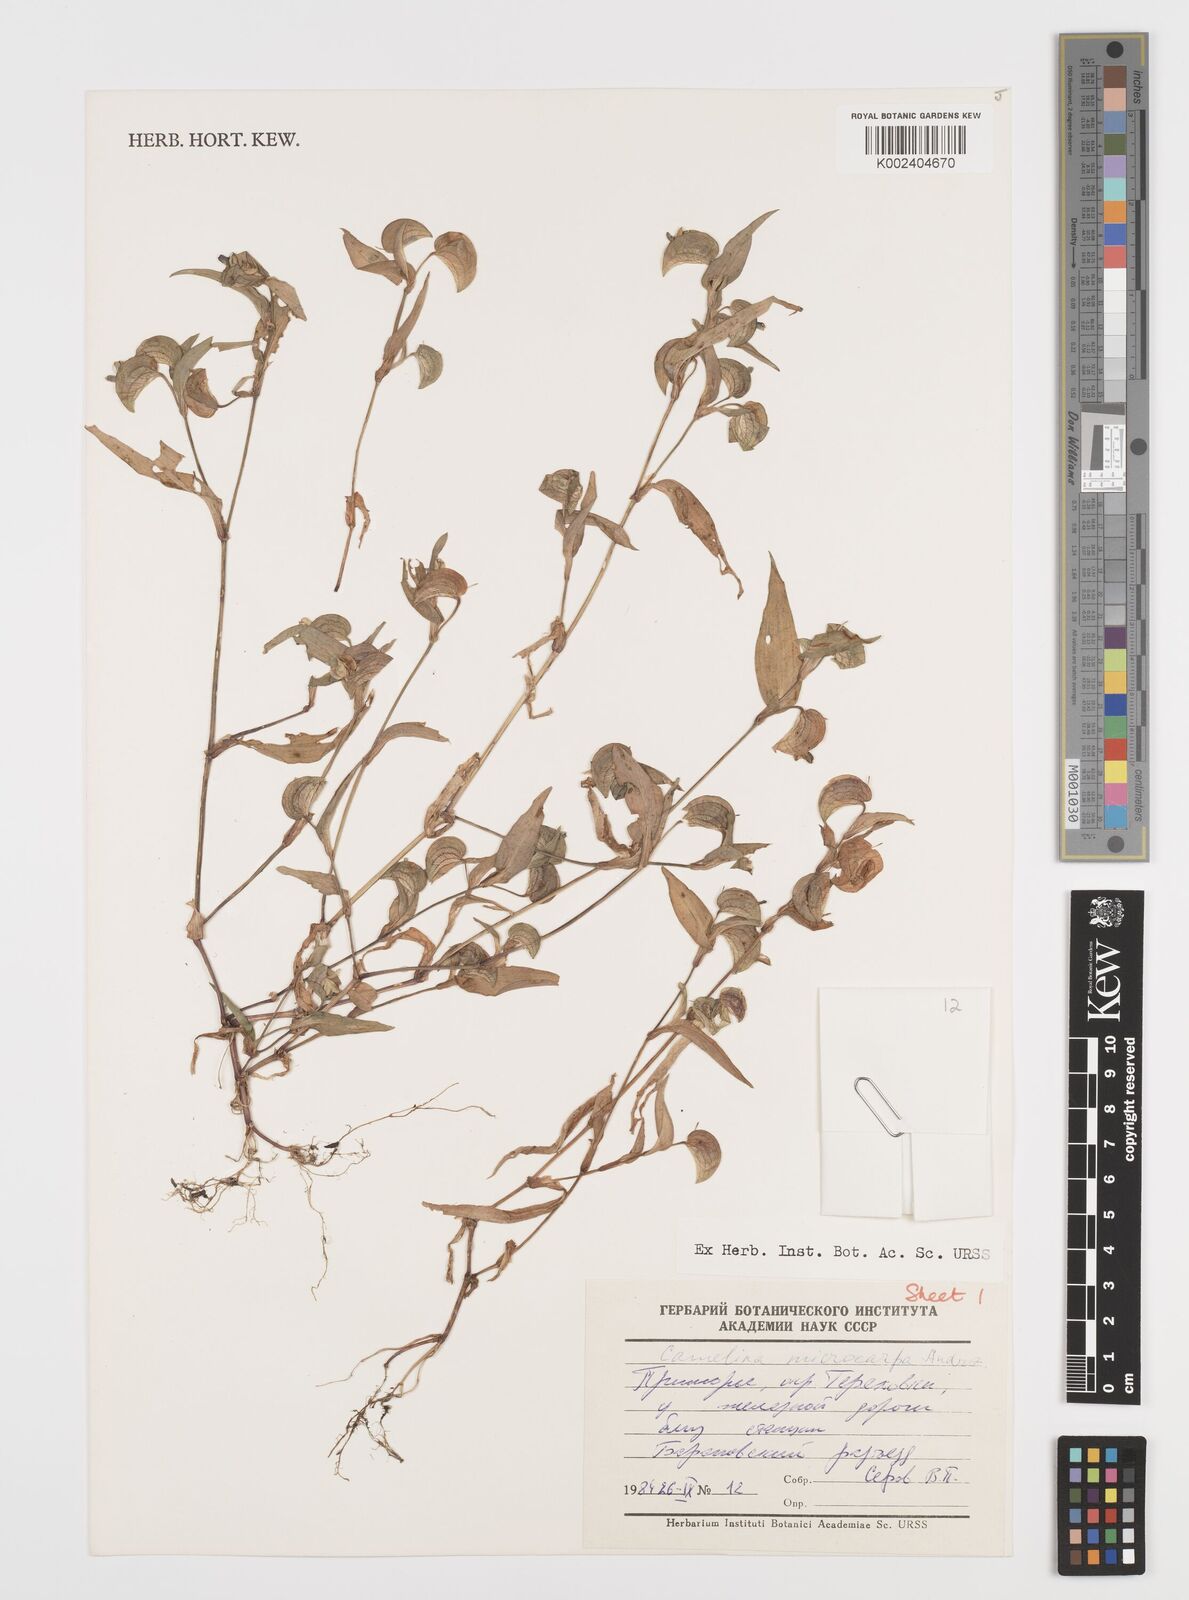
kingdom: Plantae
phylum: Tracheophyta
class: Liliopsida
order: Commelinales
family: Commelinaceae
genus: Commelina
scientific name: Commelina microspatha
